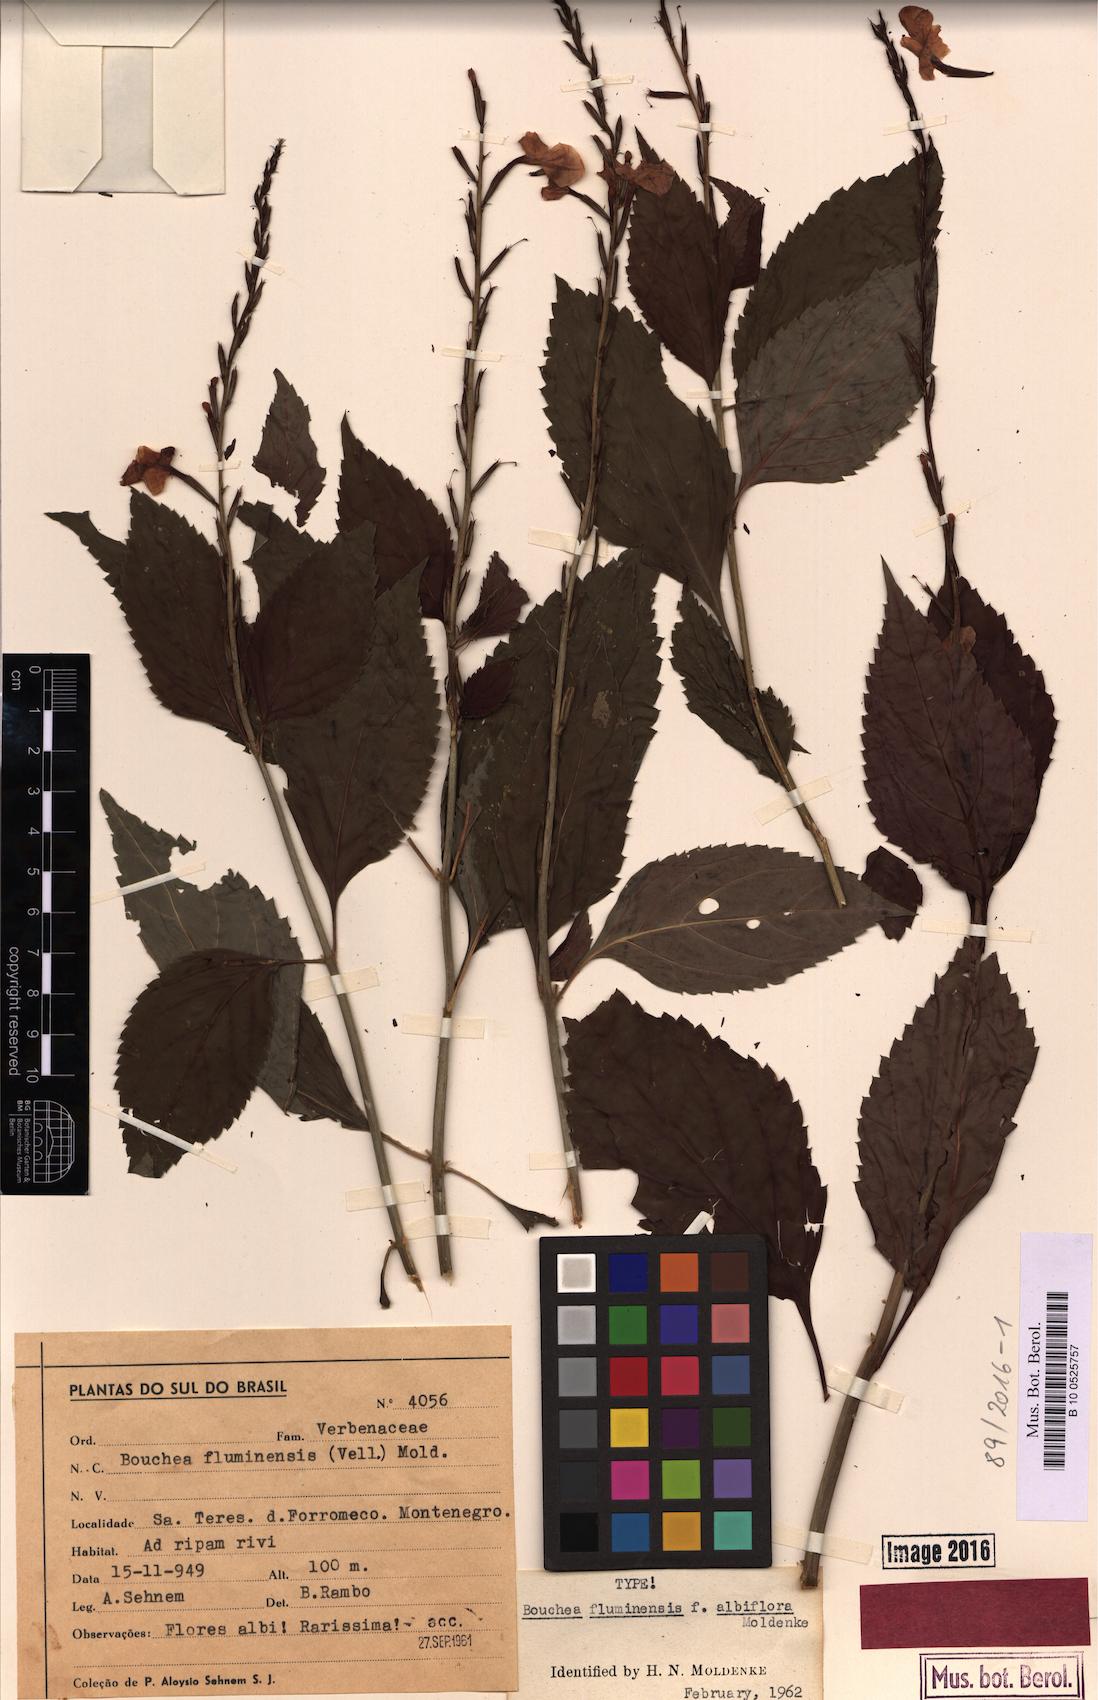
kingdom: Plantae
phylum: Tracheophyta
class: Magnoliopsida
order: Lamiales
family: Verbenaceae
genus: Bouchea
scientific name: Bouchea pseudogervao
